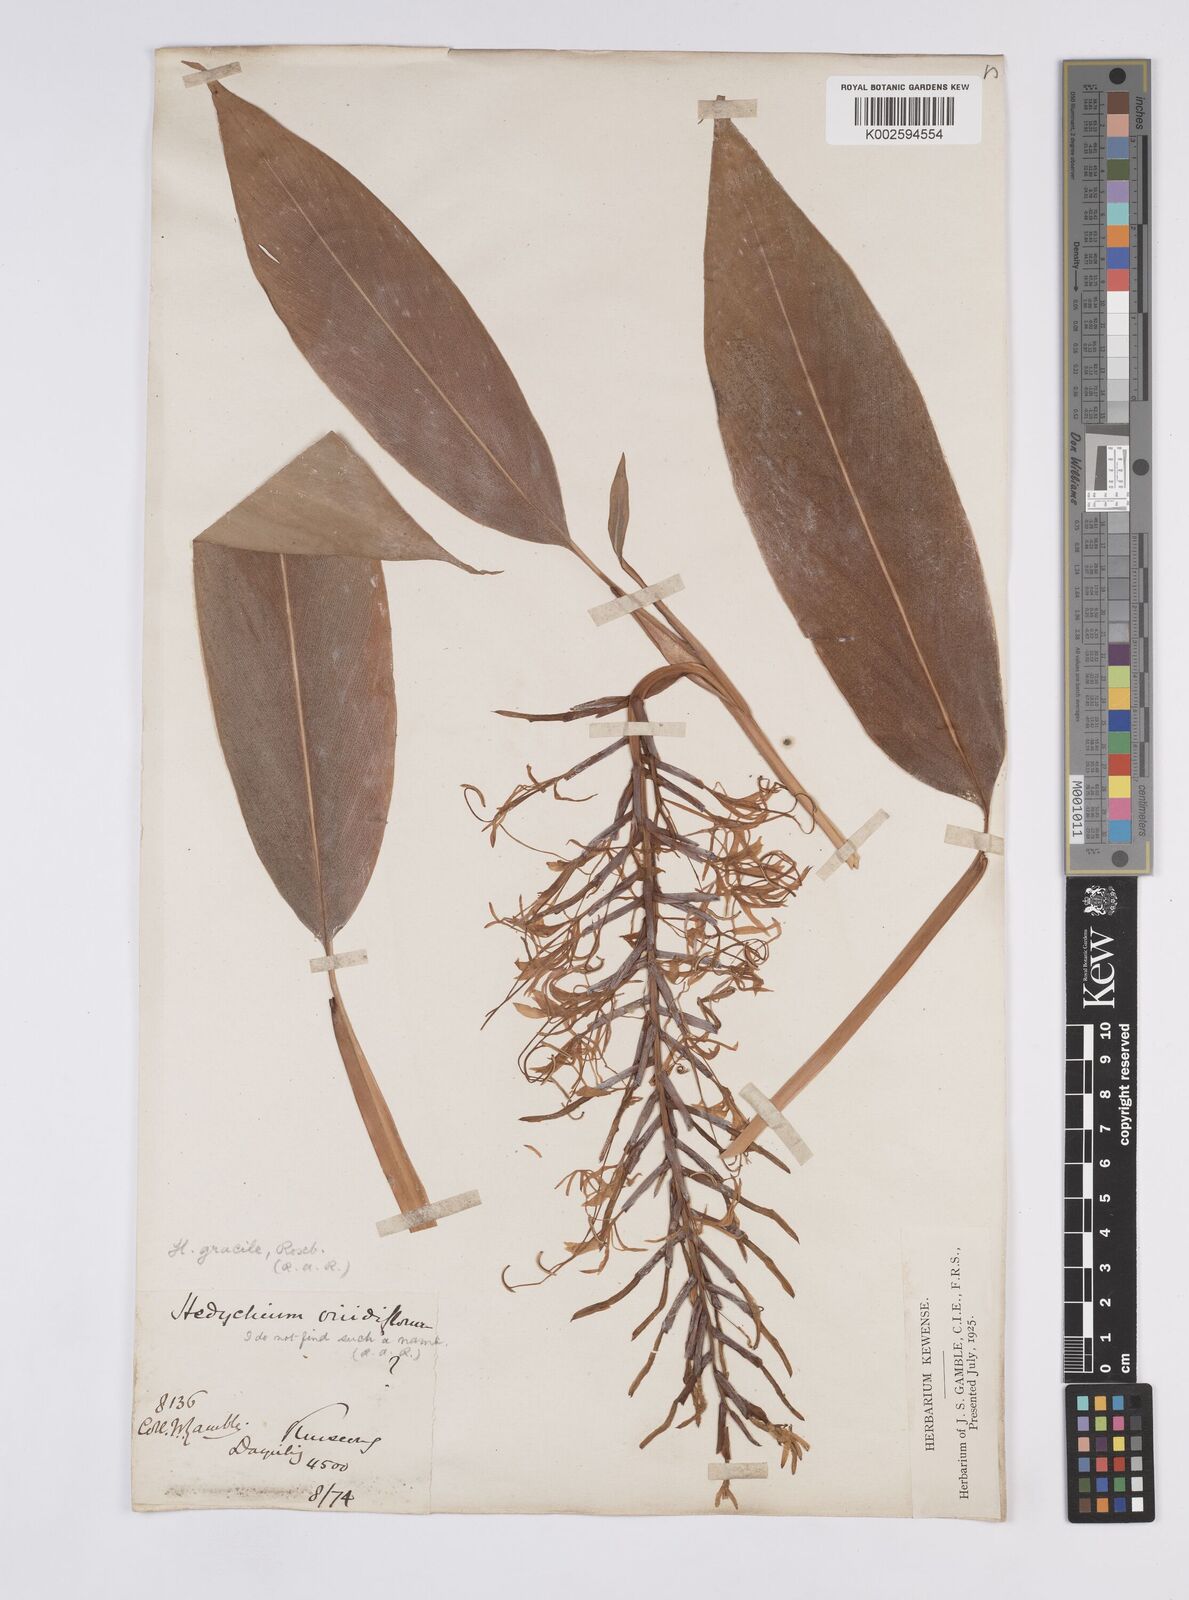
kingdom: Plantae
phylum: Tracheophyta
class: Liliopsida
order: Zingiberales
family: Zingiberaceae
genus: Hedychium
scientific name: Hedychium glaucum
